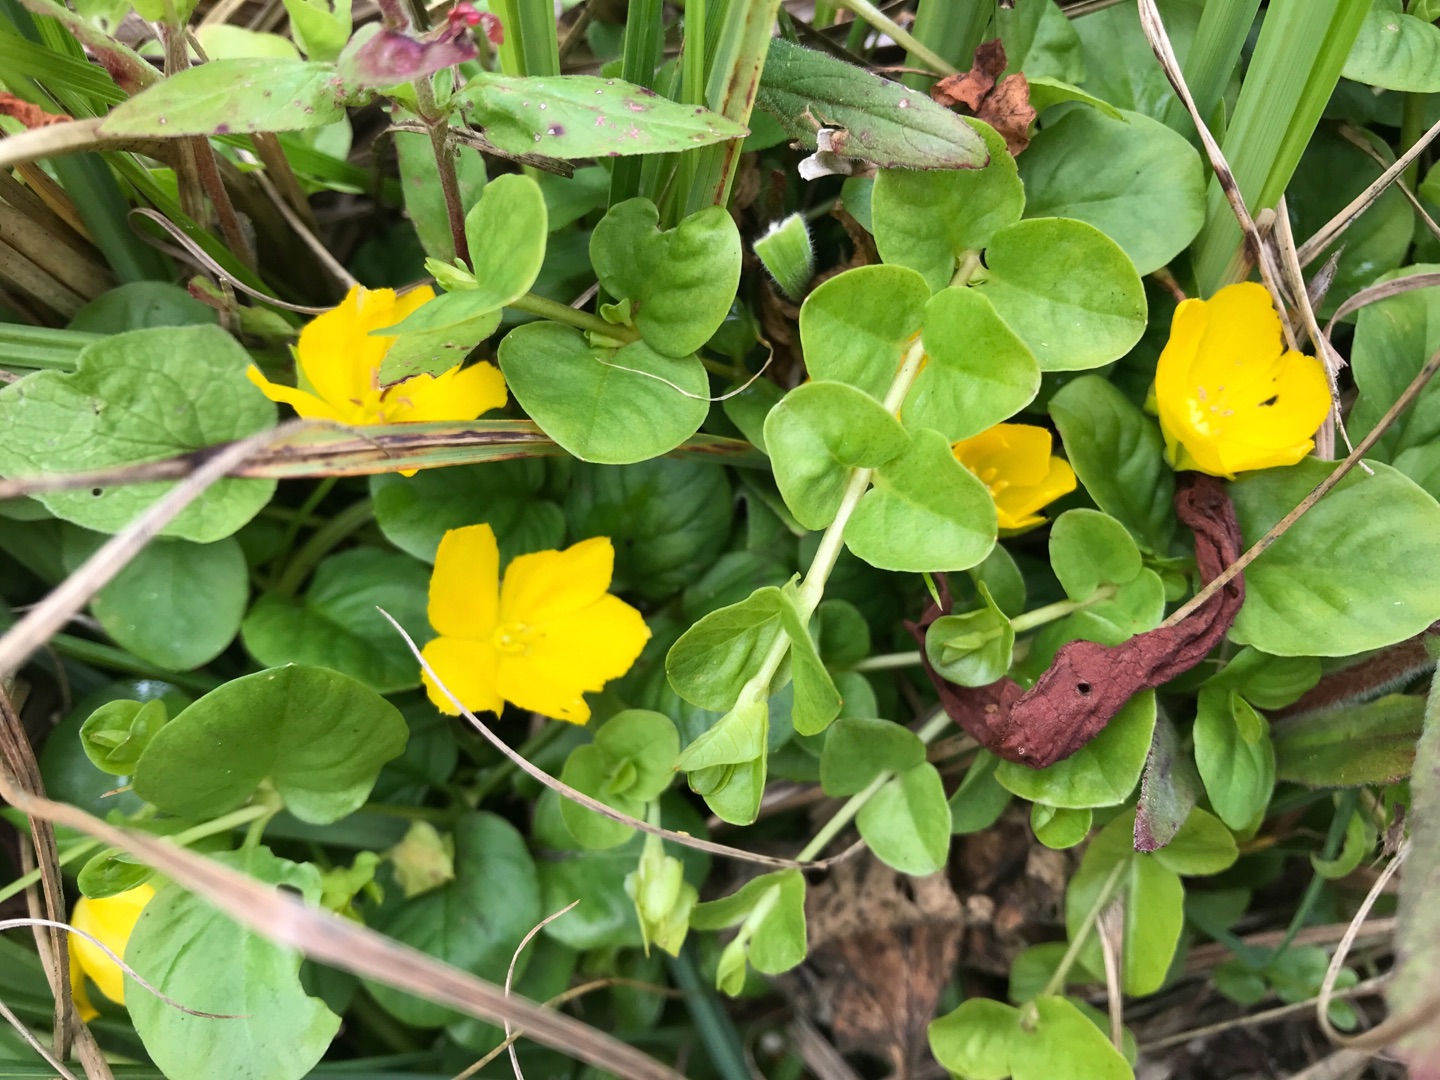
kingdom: Plantae
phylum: Tracheophyta
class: Magnoliopsida
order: Ericales
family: Primulaceae
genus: Lysimachia
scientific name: Lysimachia nummularia
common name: Pengebladet fredløs
